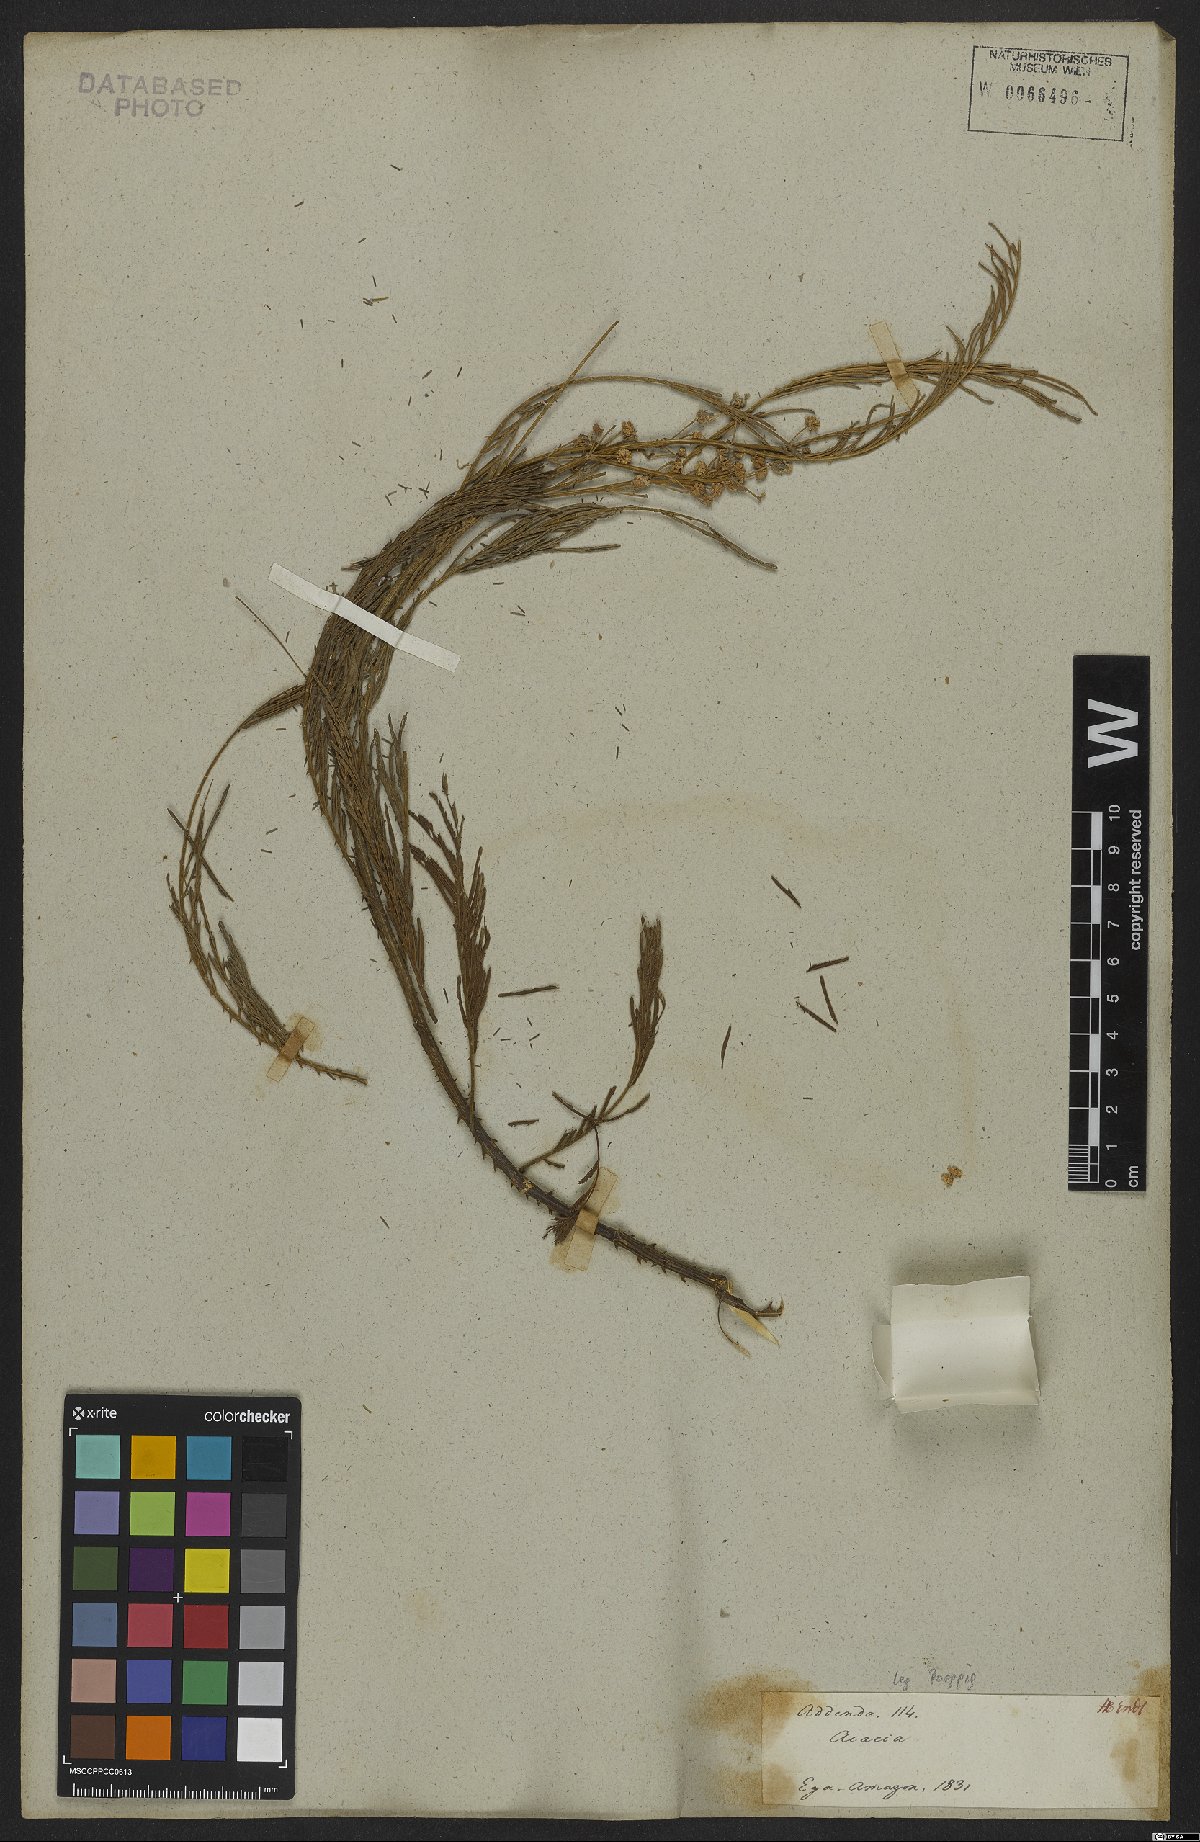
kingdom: Plantae
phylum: Tracheophyta
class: Magnoliopsida
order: Fabales
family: Fabaceae
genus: Senegalia
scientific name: Senegalia paniculata
